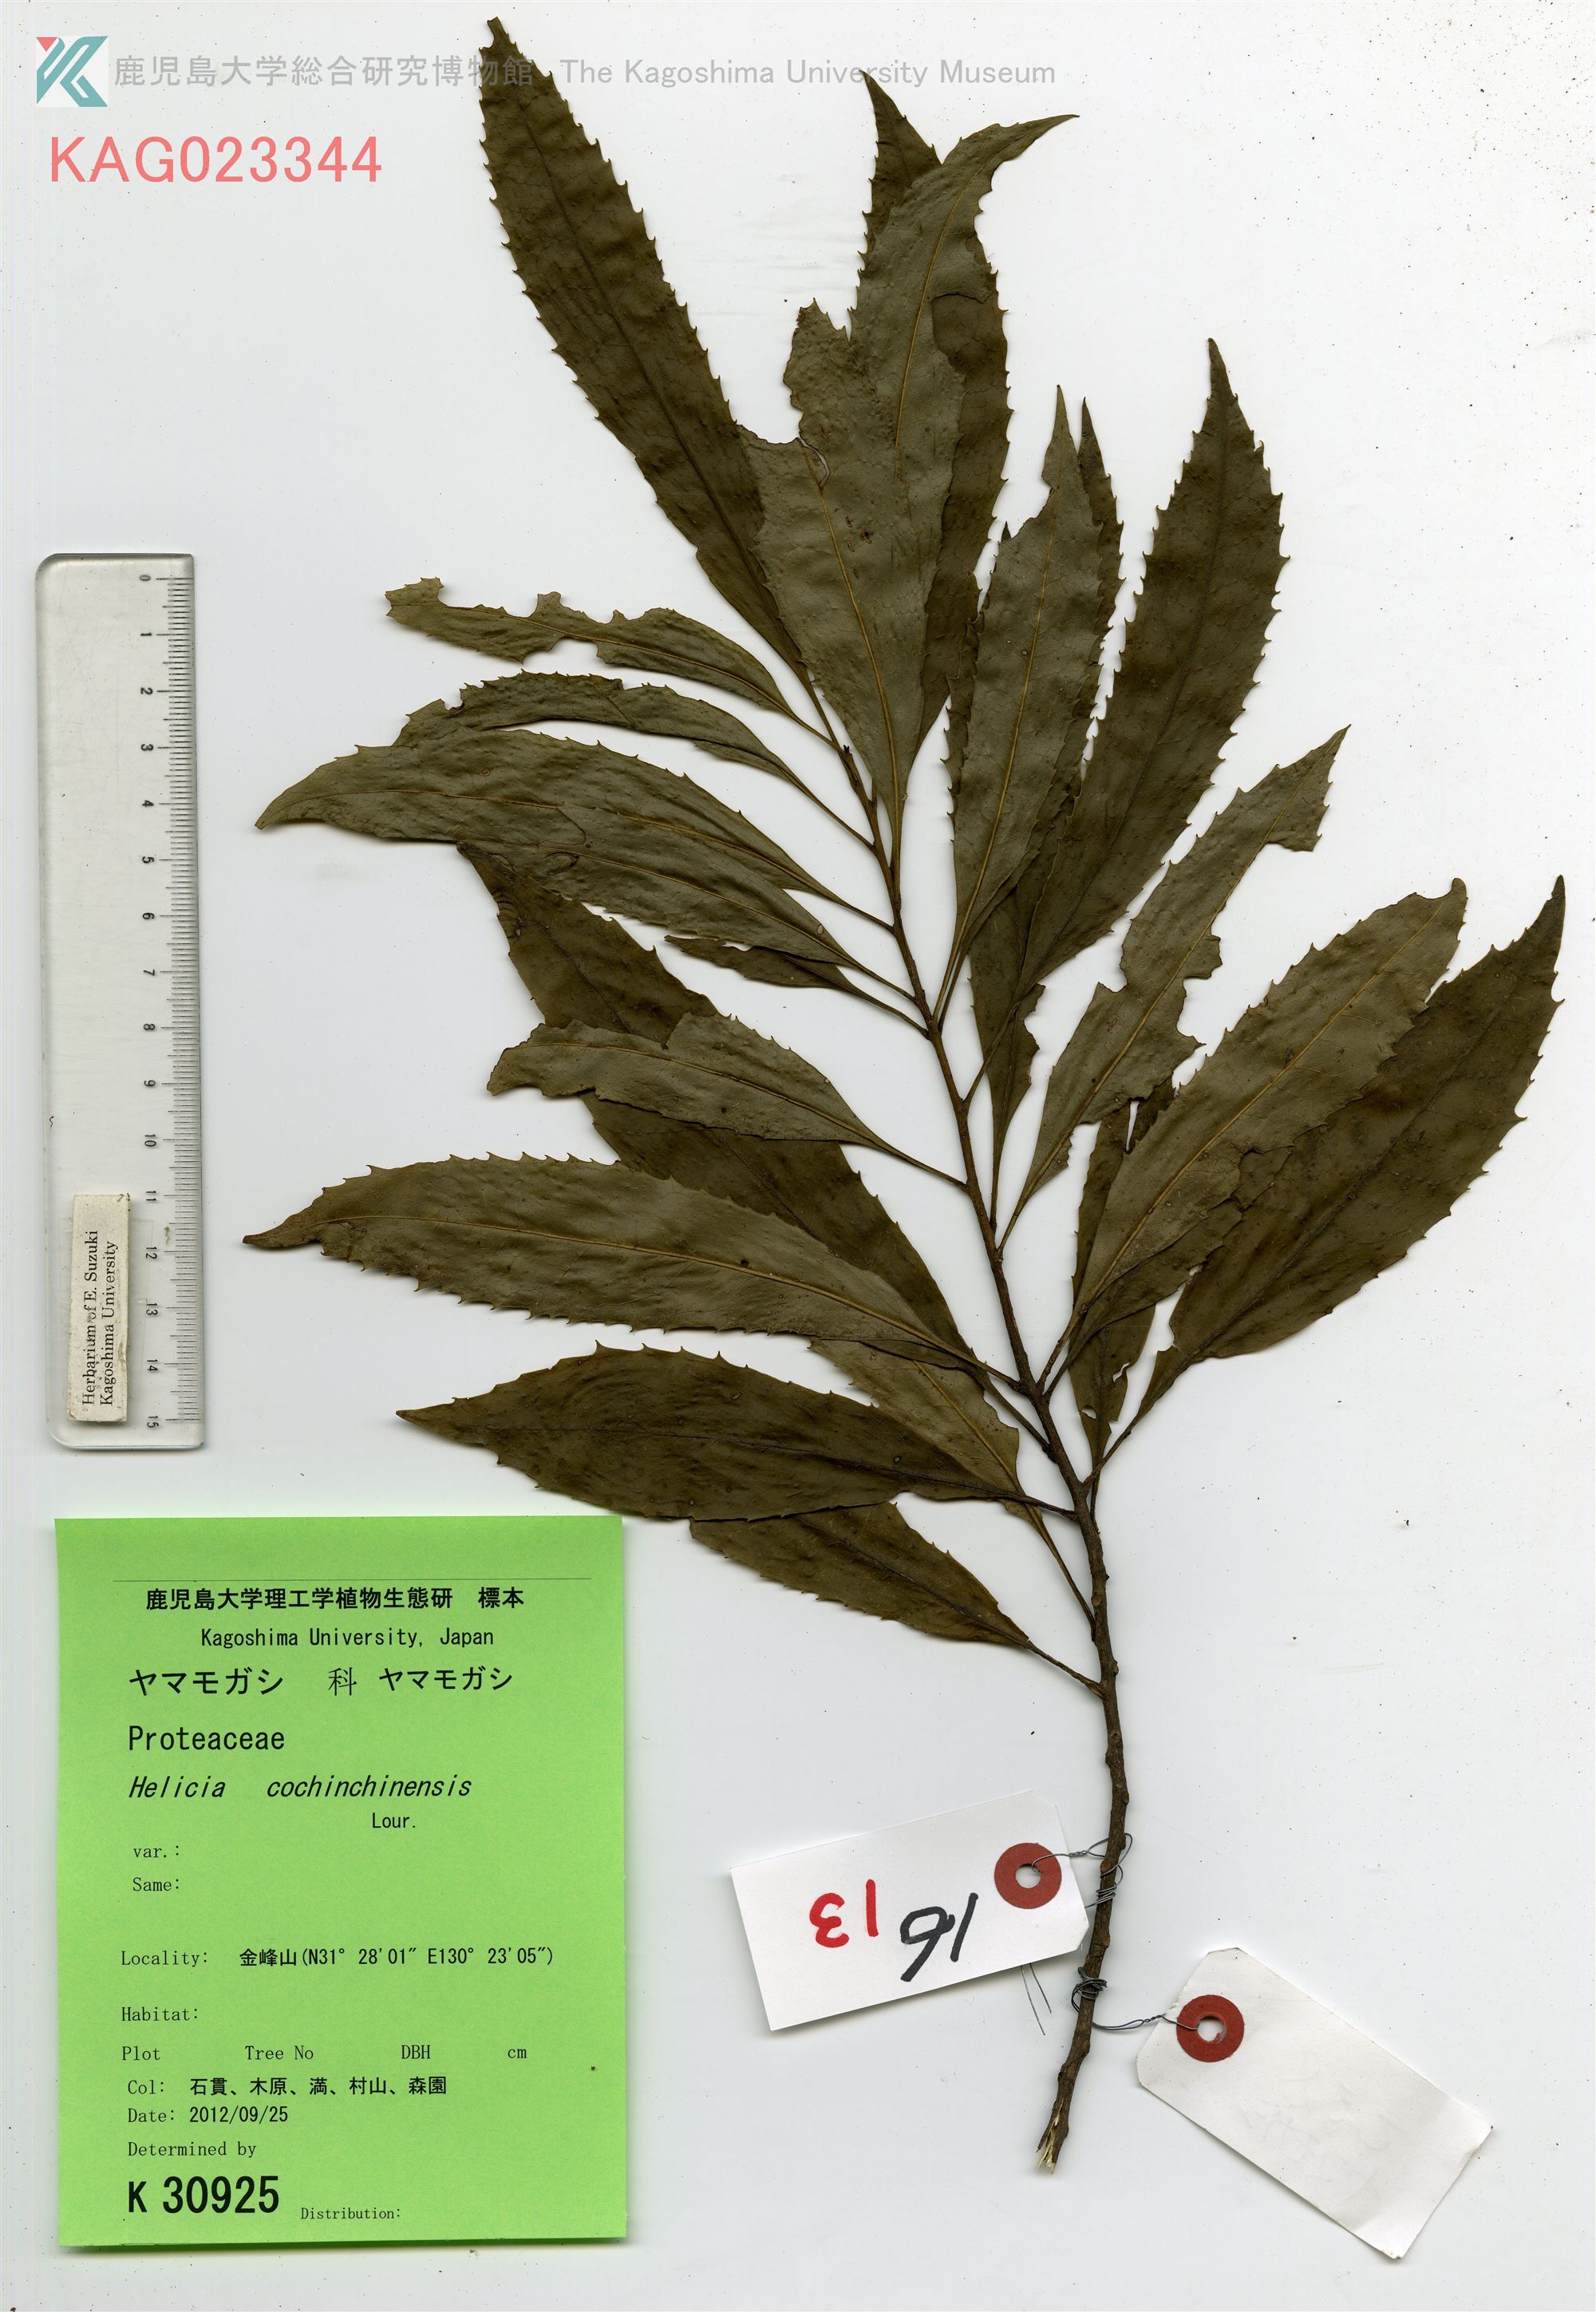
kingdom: Plantae
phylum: Tracheophyta
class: Magnoliopsida
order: Proteales
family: Proteaceae
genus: Helicia
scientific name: Helicia cochinchinensis
